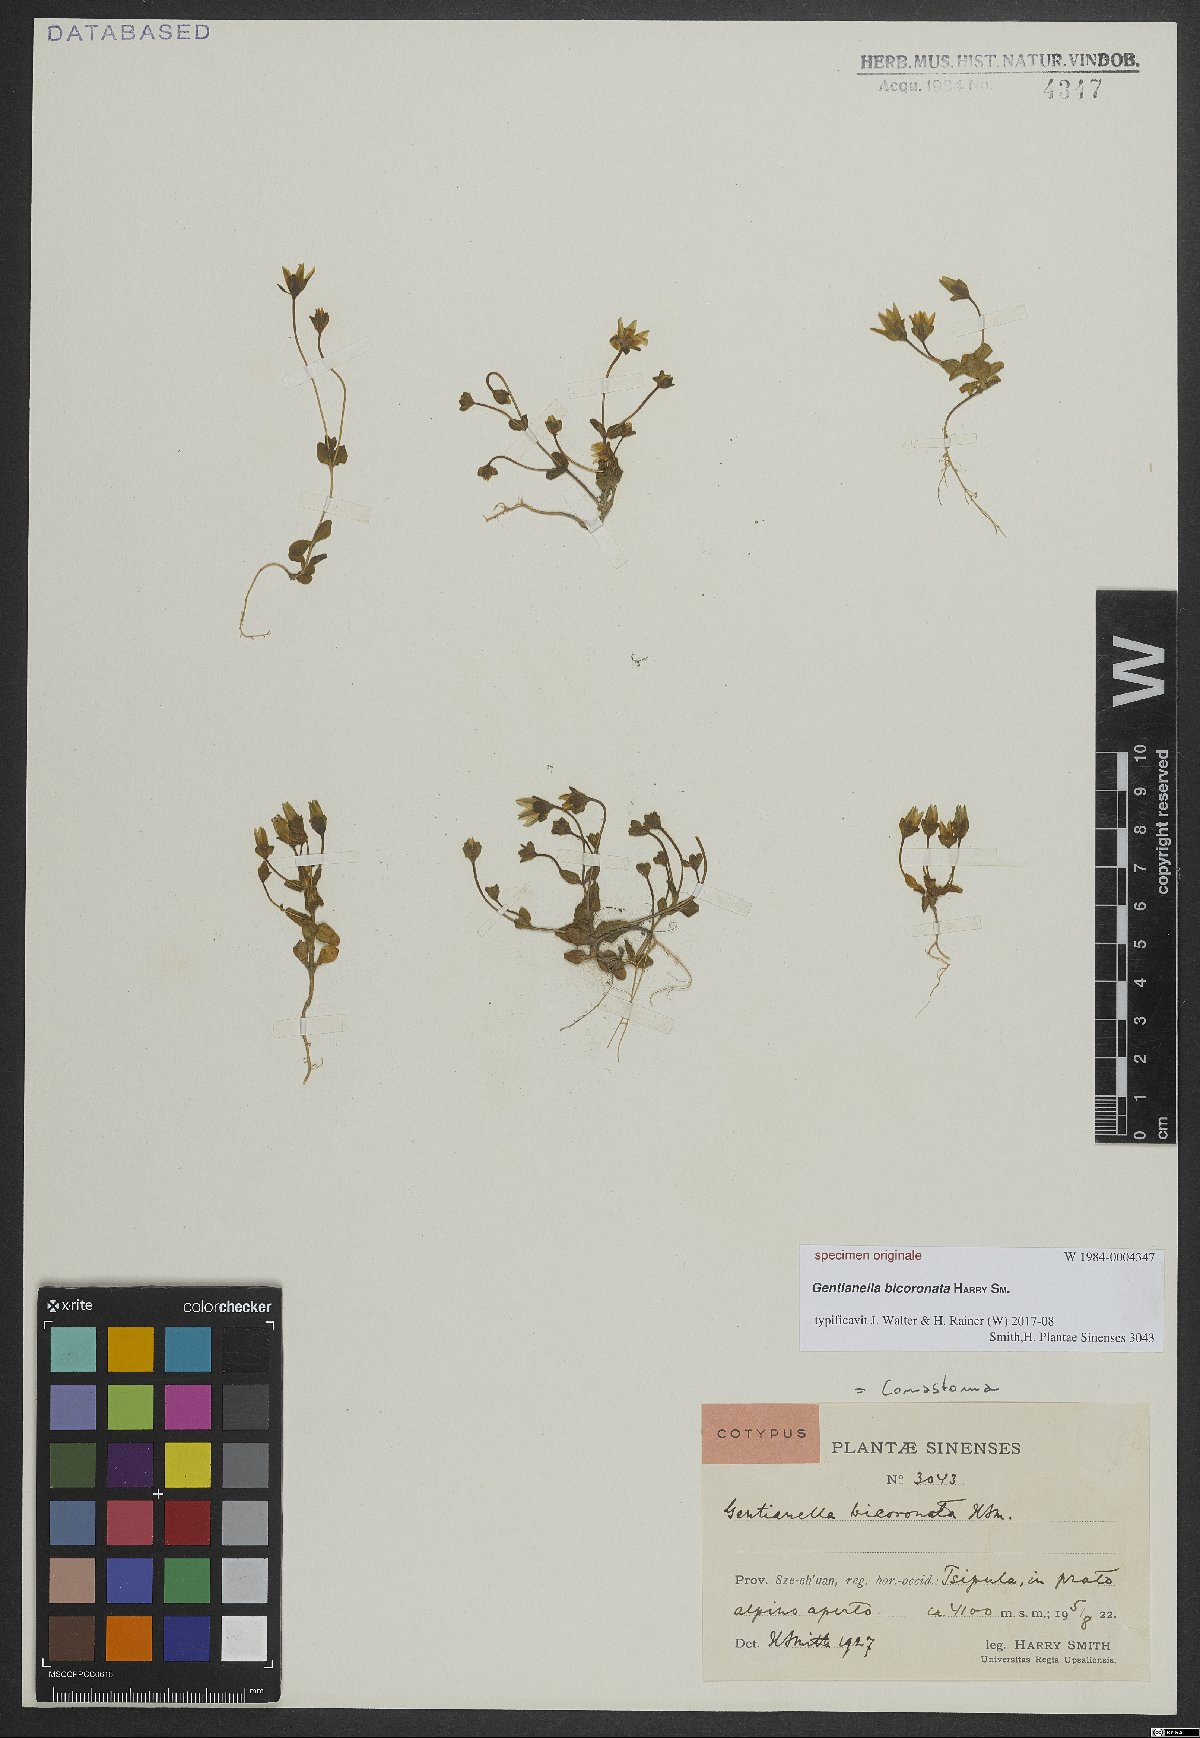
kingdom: Plantae
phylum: Tracheophyta
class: Magnoliopsida
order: Gentianales
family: Gentianaceae
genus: Comastoma
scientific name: Comastoma
